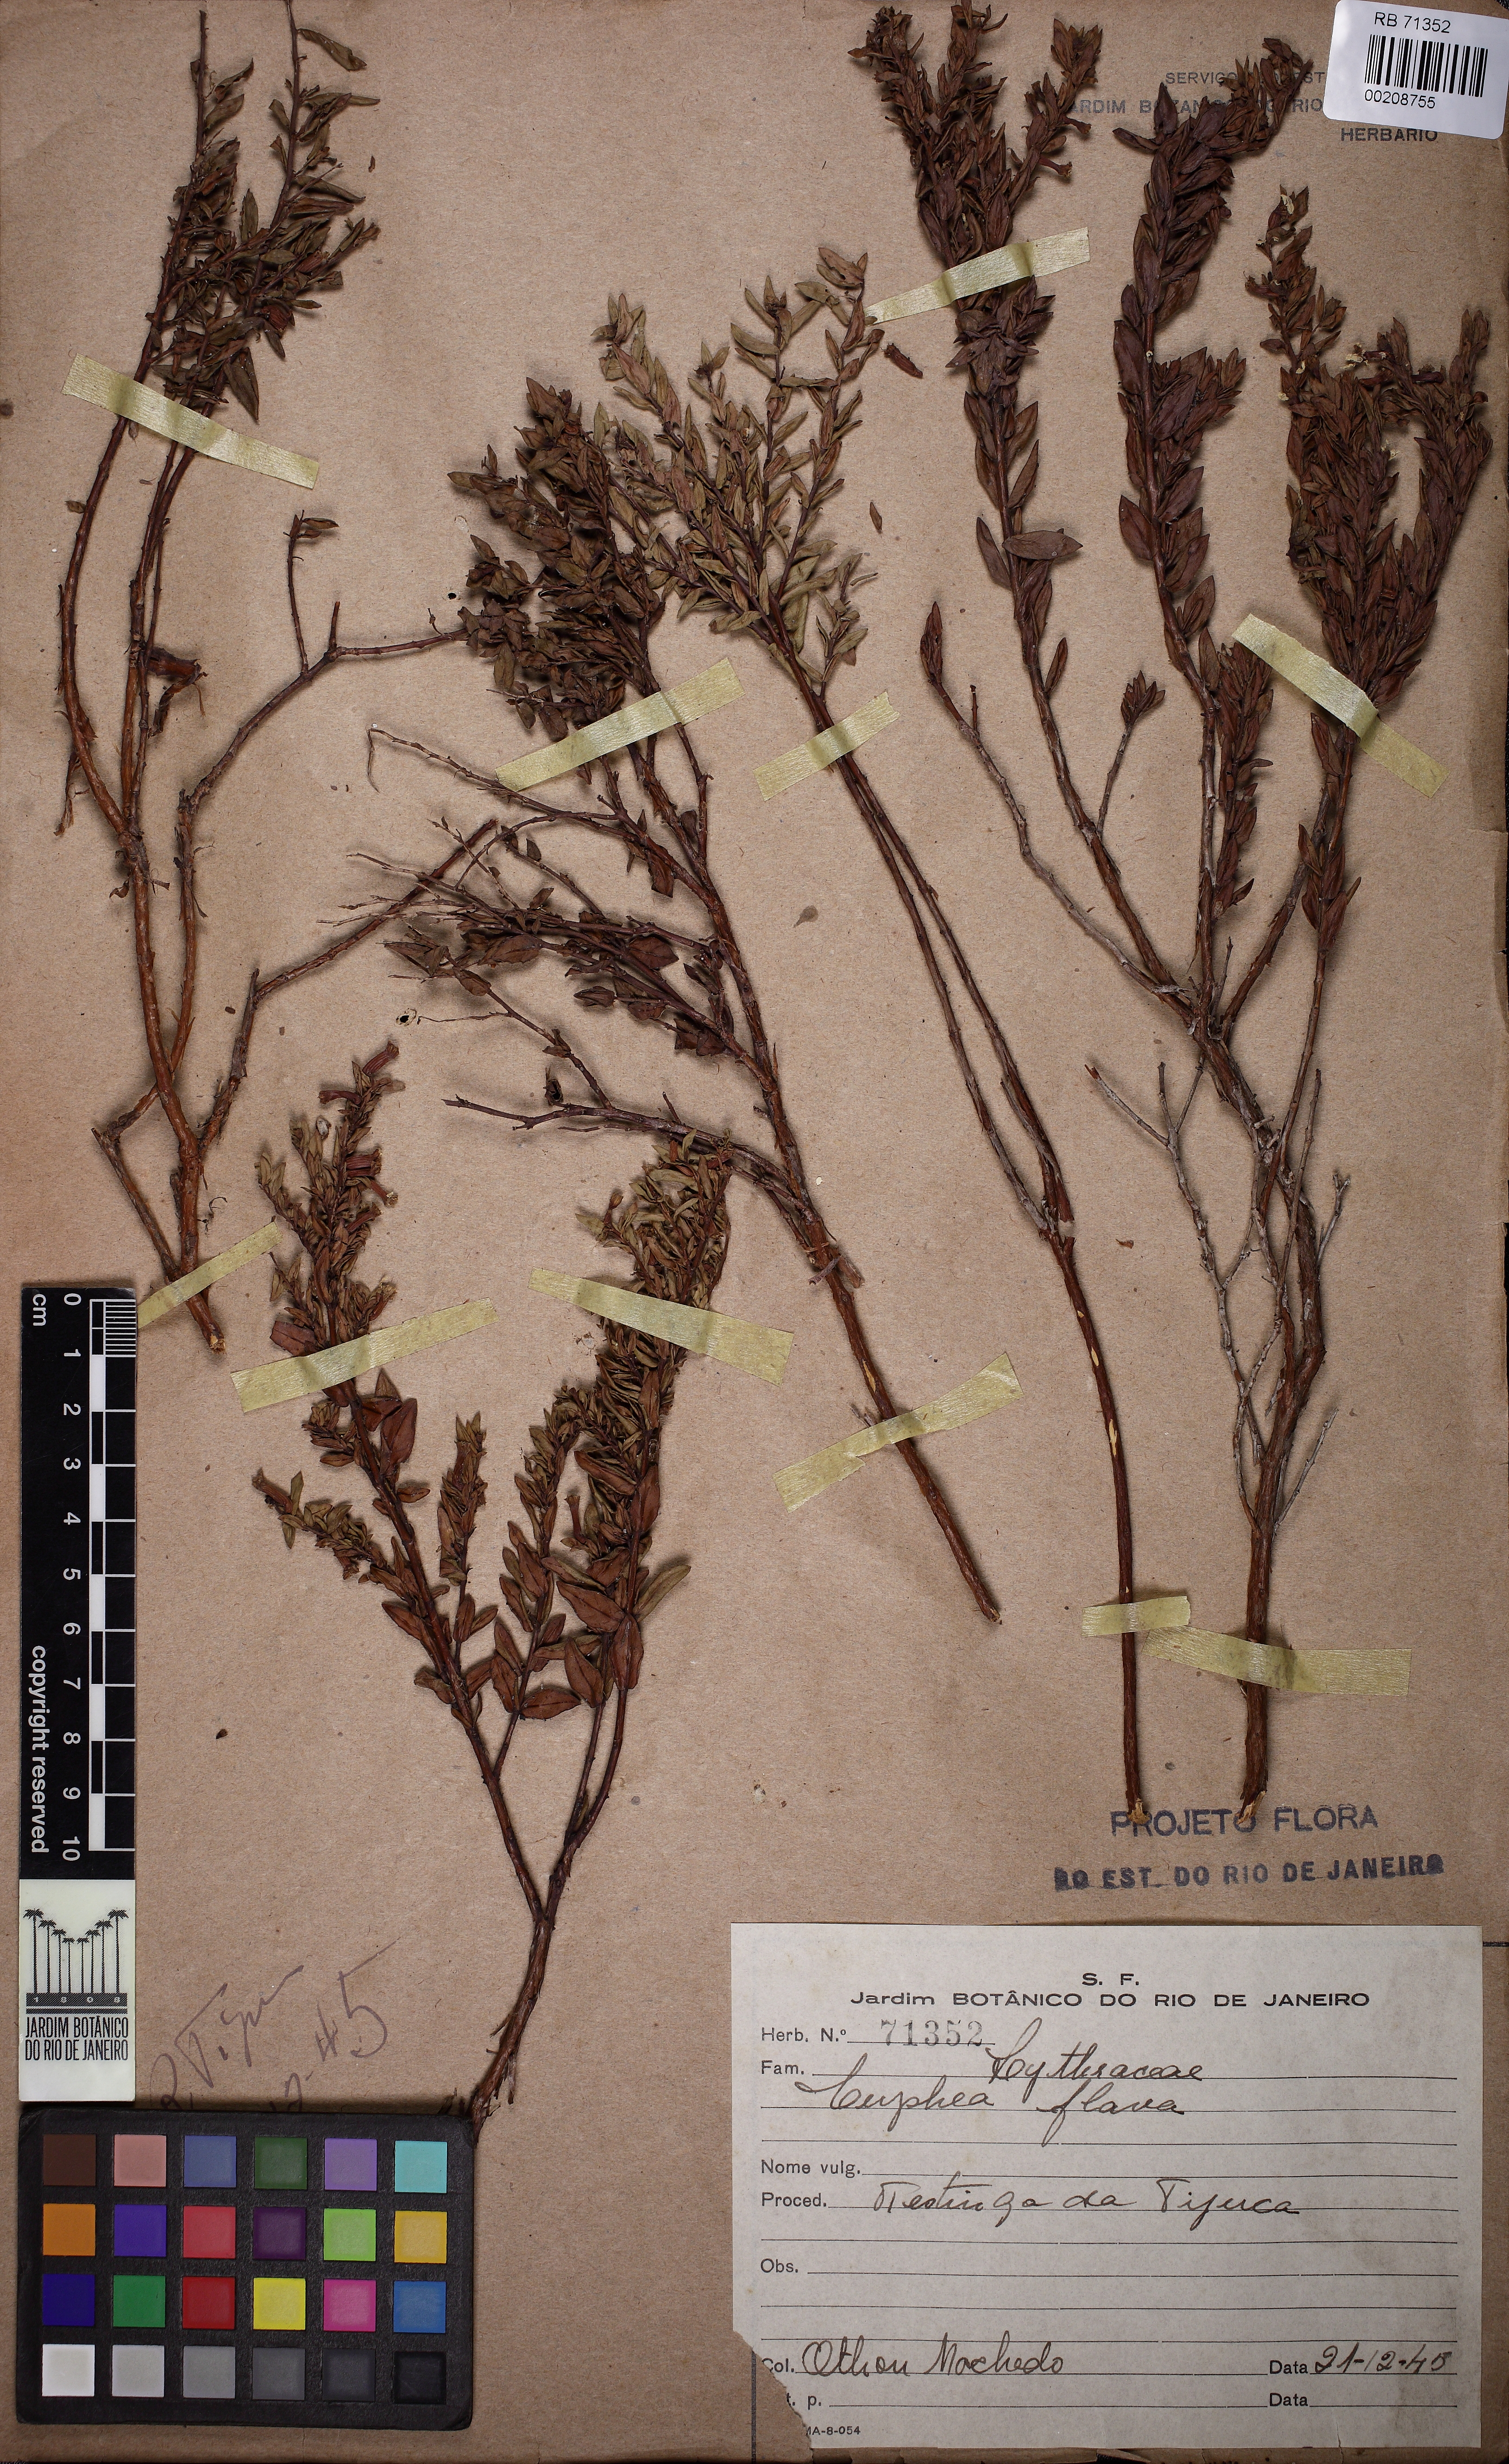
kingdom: Plantae
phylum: Tracheophyta
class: Magnoliopsida
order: Myrtales
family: Lythraceae
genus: Cuphea
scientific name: Cuphea flava
